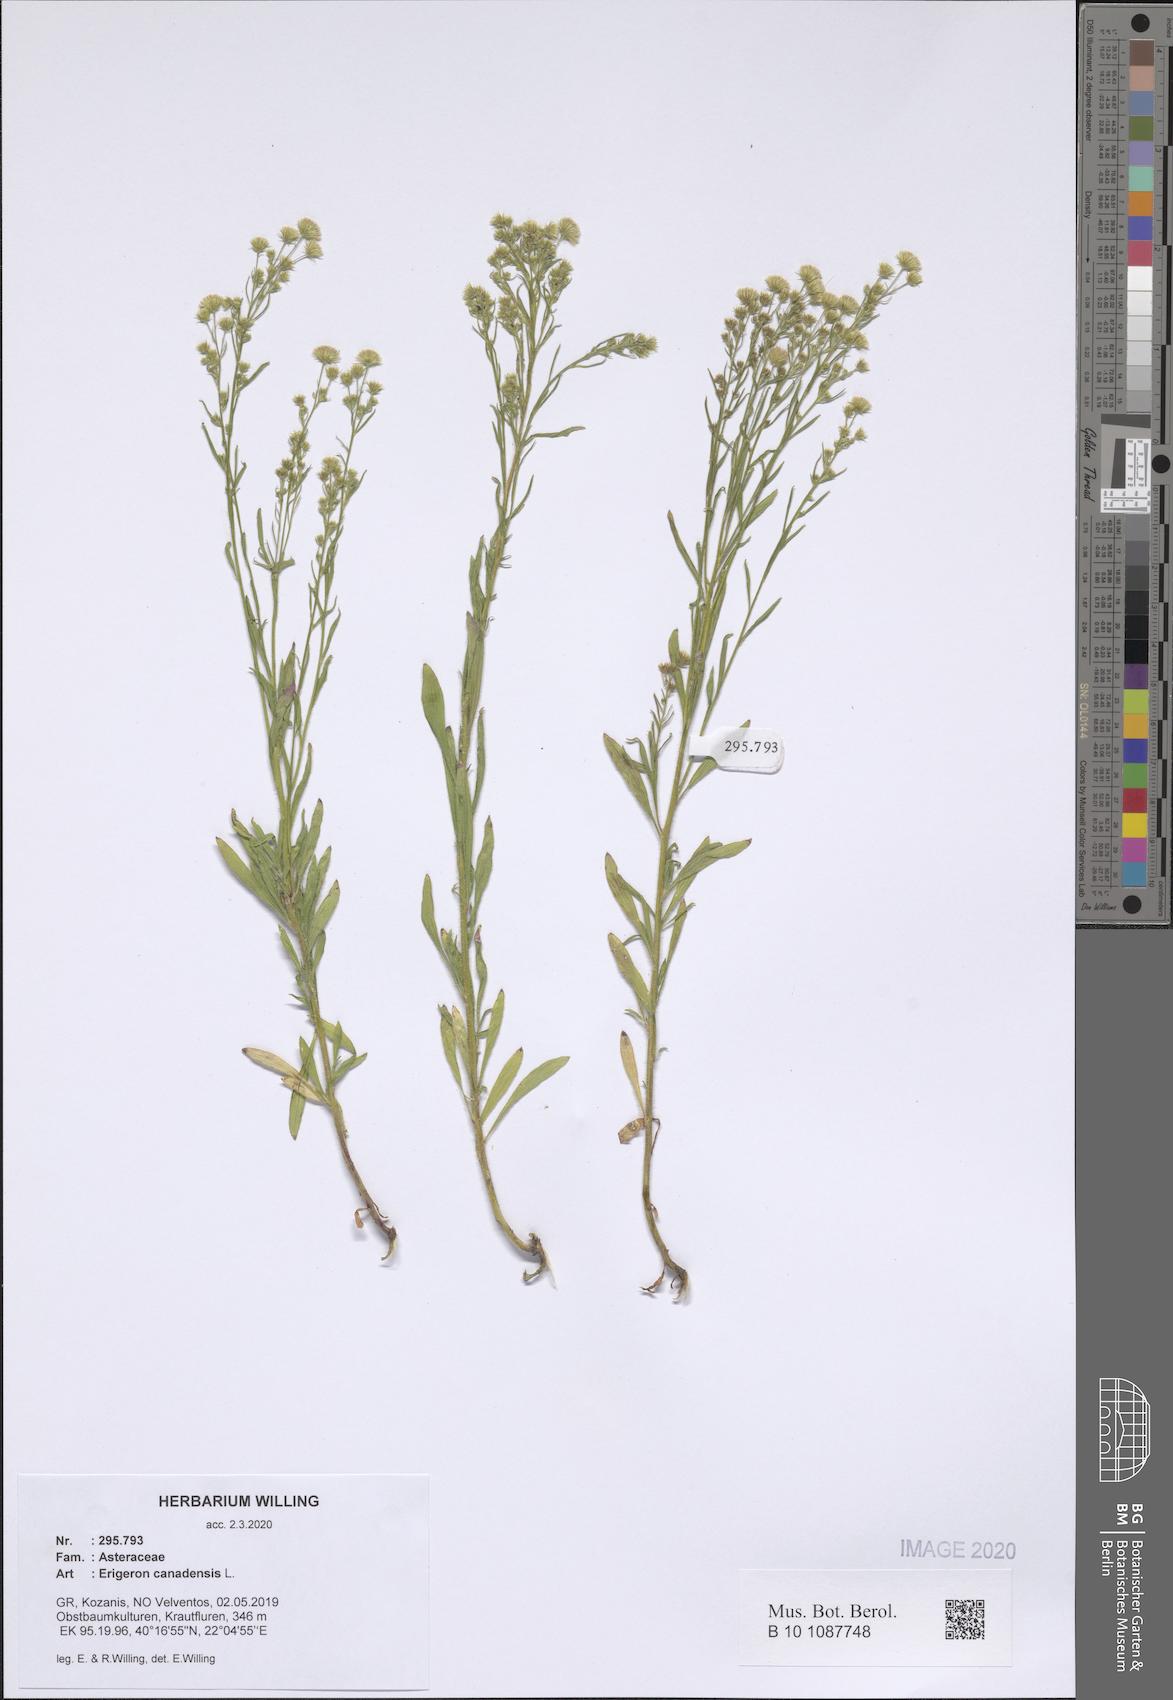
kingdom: Plantae
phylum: Tracheophyta
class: Magnoliopsida
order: Asterales
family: Asteraceae
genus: Erigeron
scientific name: Erigeron canadensis
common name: Canadian fleabane
